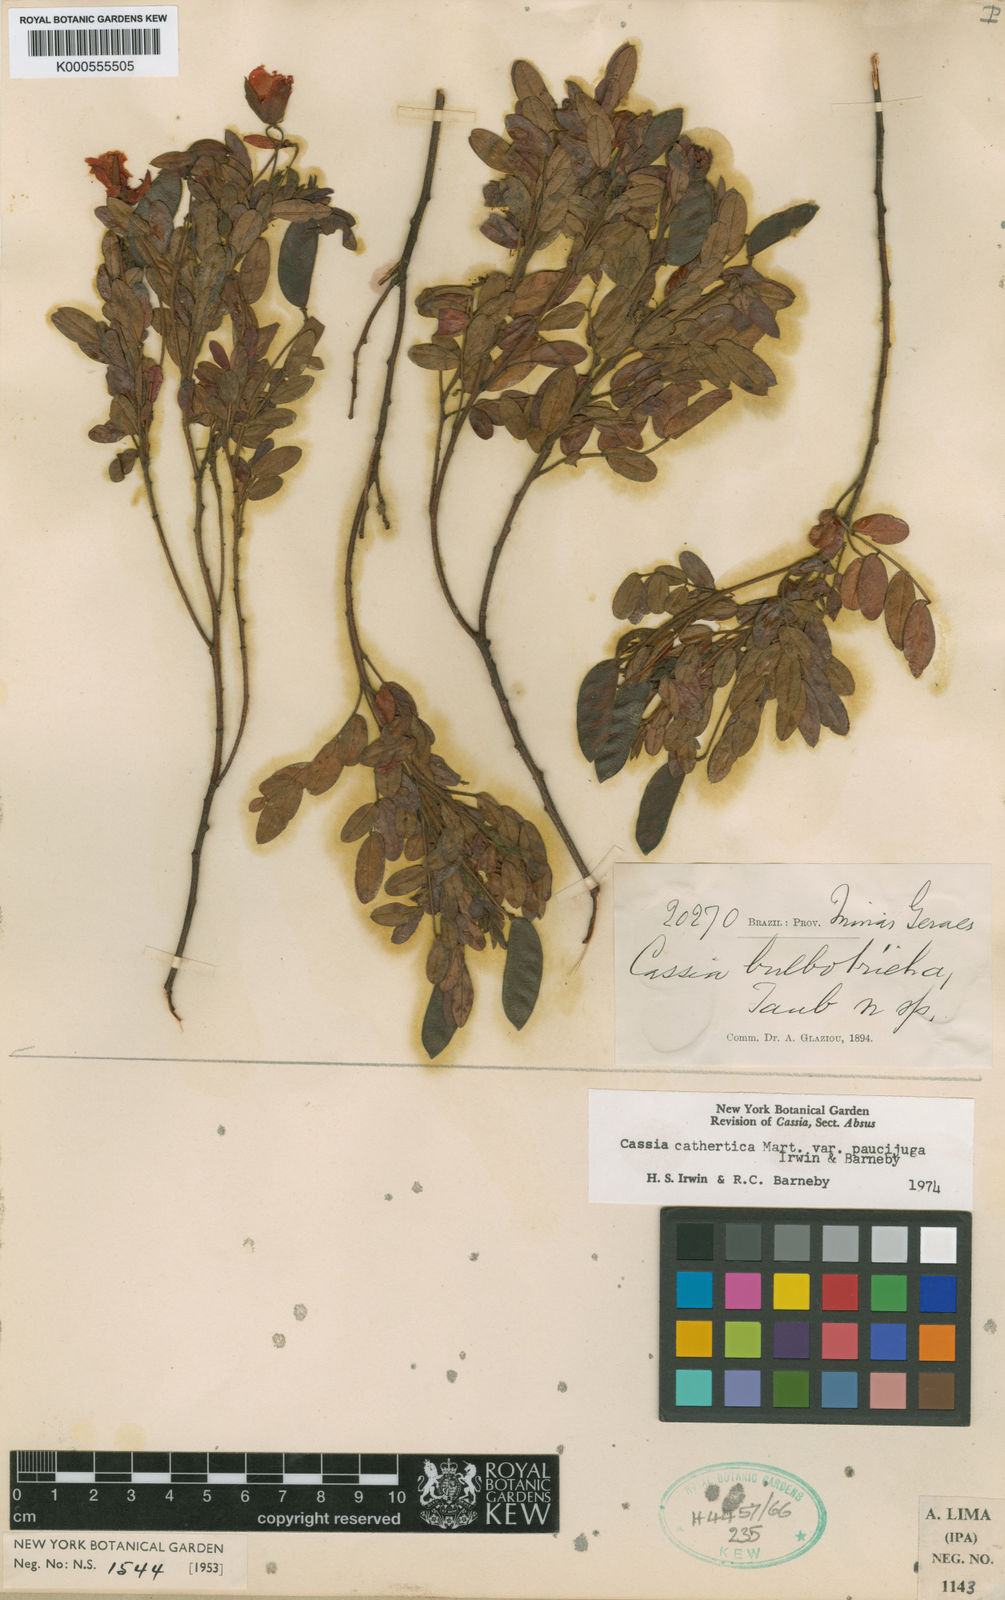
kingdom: Plantae
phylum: Tracheophyta
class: Magnoliopsida
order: Fabales
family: Fabaceae
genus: Chamaecrista
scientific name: Chamaecrista trachycarpa
